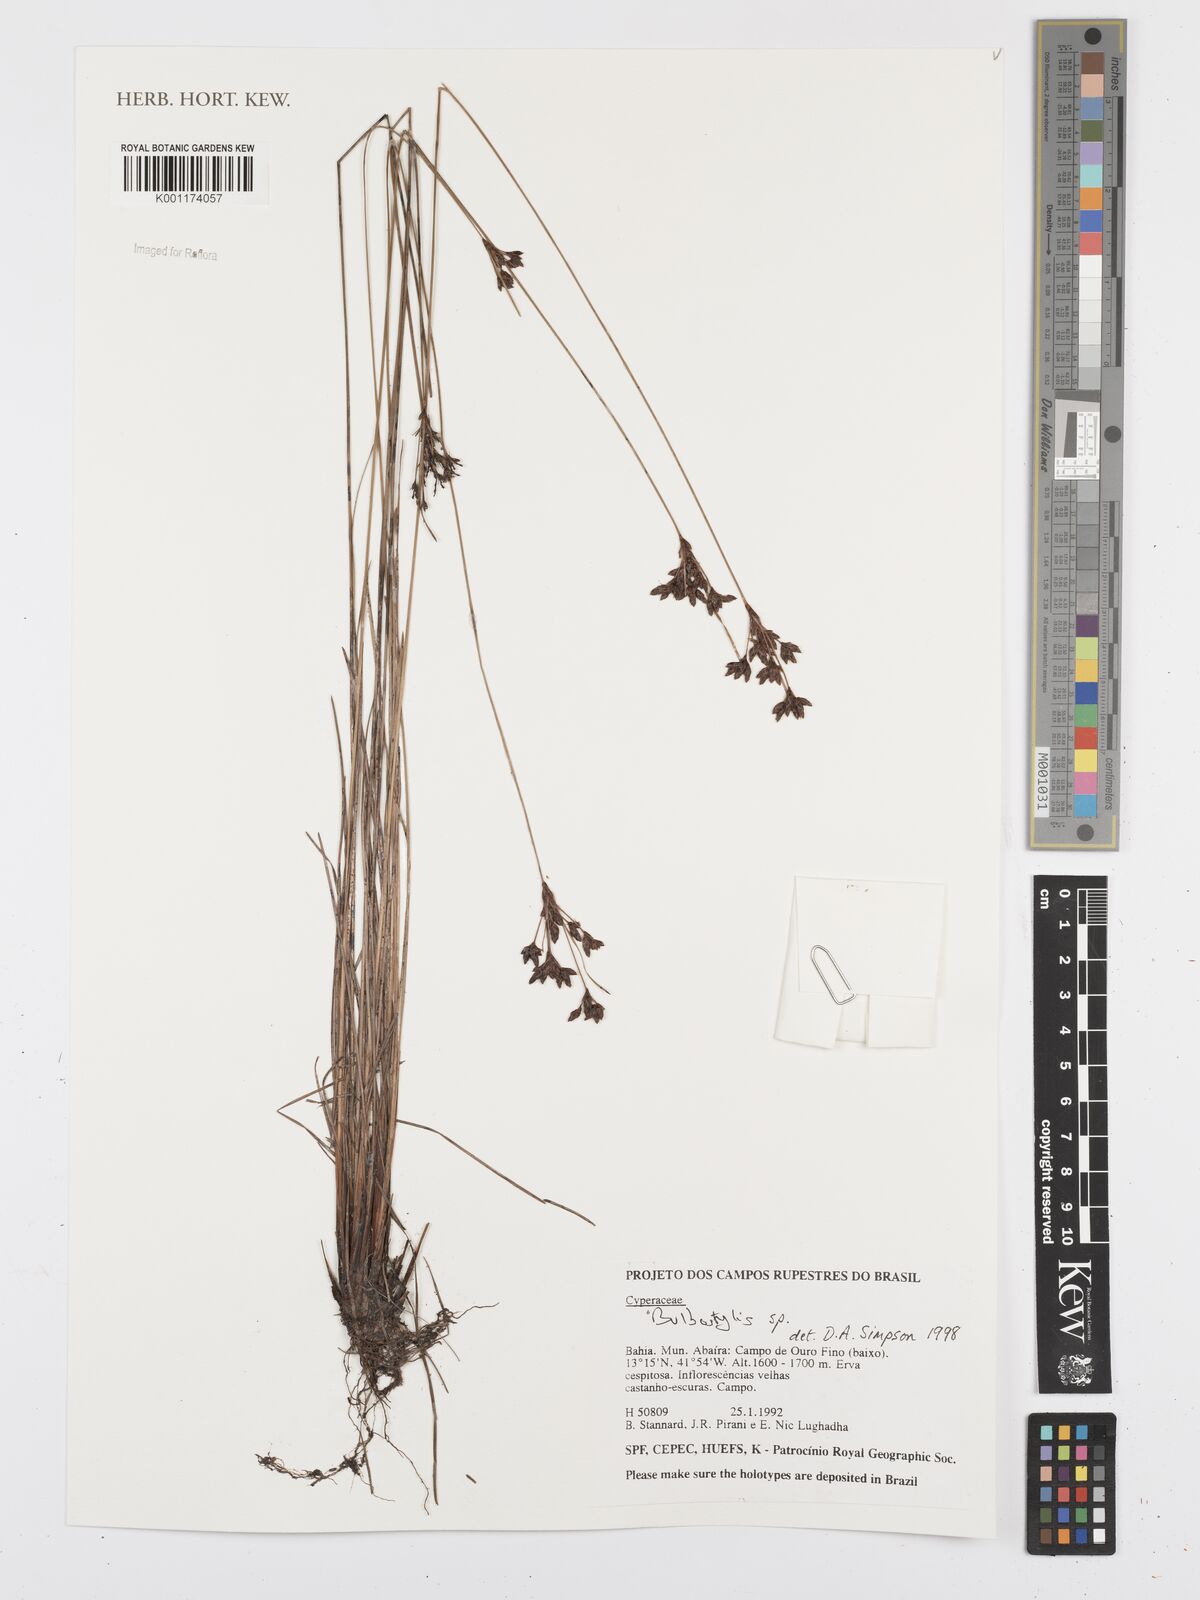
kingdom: Plantae
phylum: Tracheophyta
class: Liliopsida
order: Poales
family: Cyperaceae
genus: Bulbostylis
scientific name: Bulbostylis
